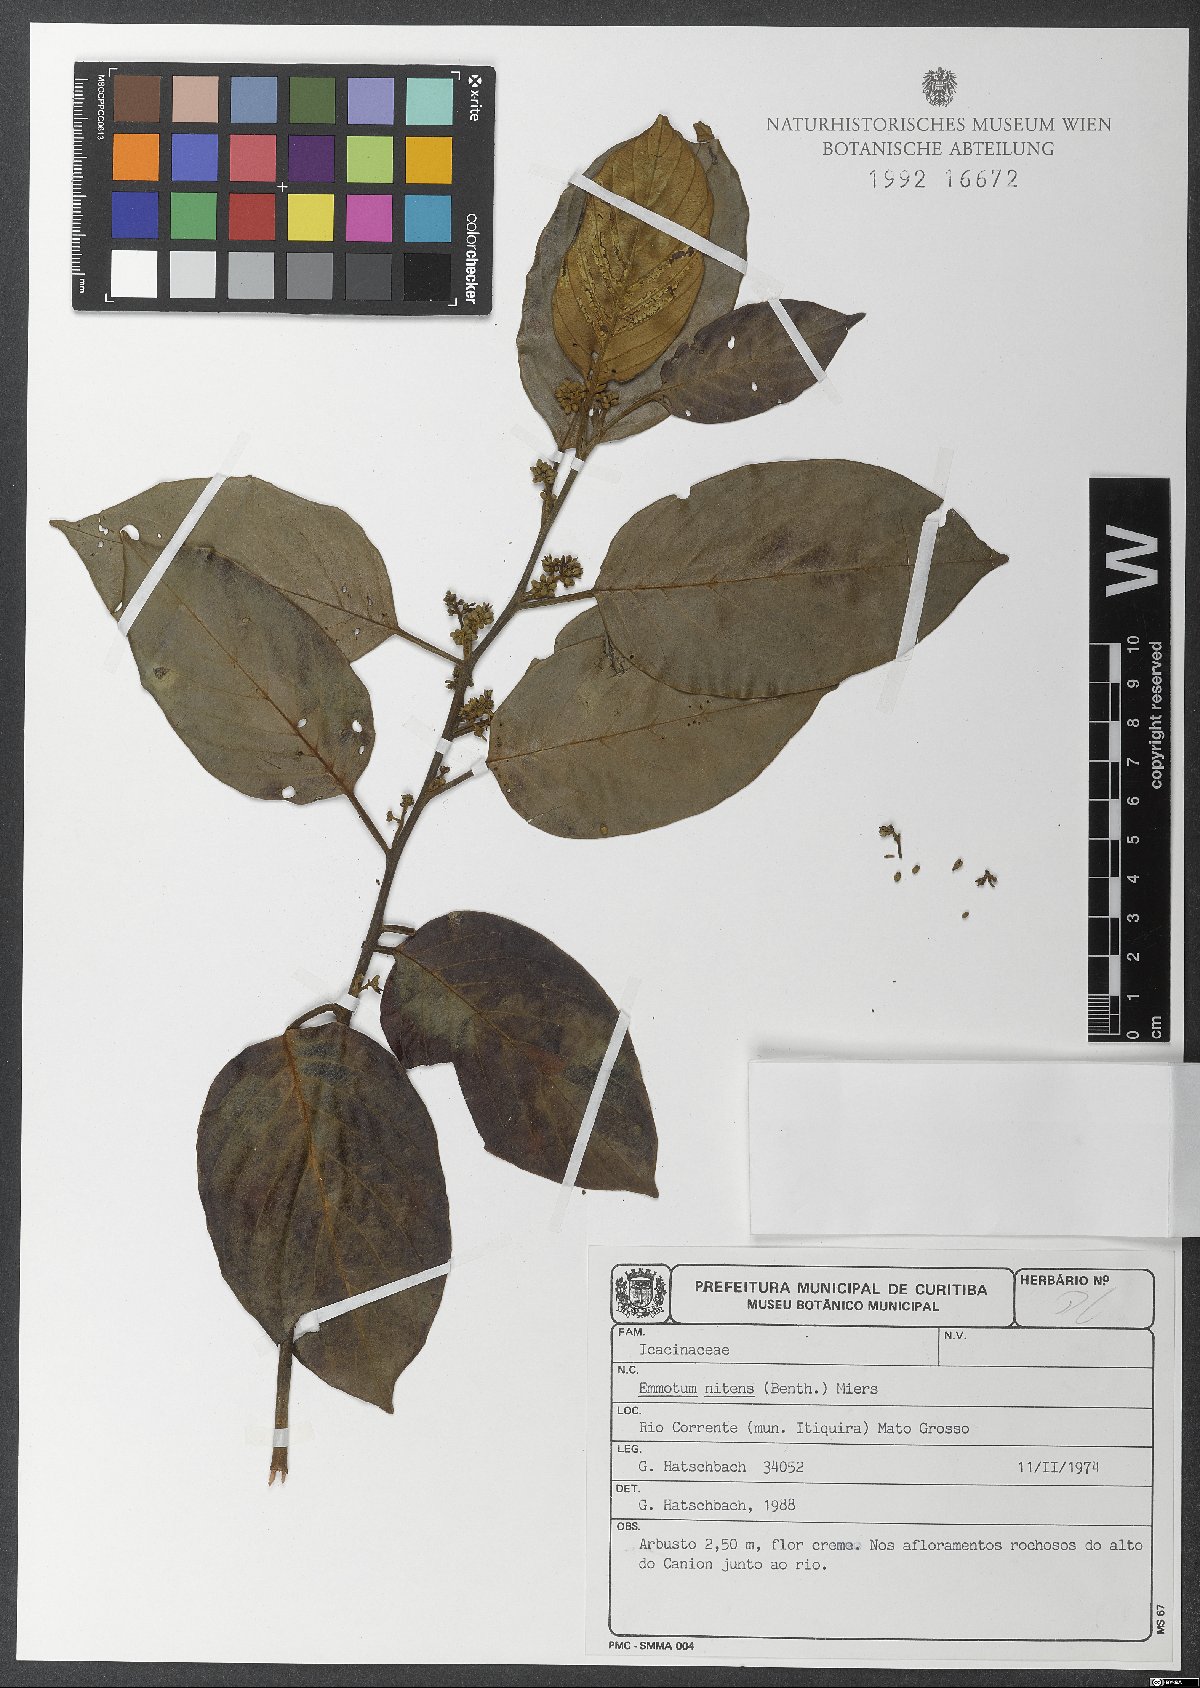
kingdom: Plantae
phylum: Tracheophyta
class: Magnoliopsida
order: Metteniusales
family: Metteniusaceae
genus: Emmotum
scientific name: Emmotum nitens
